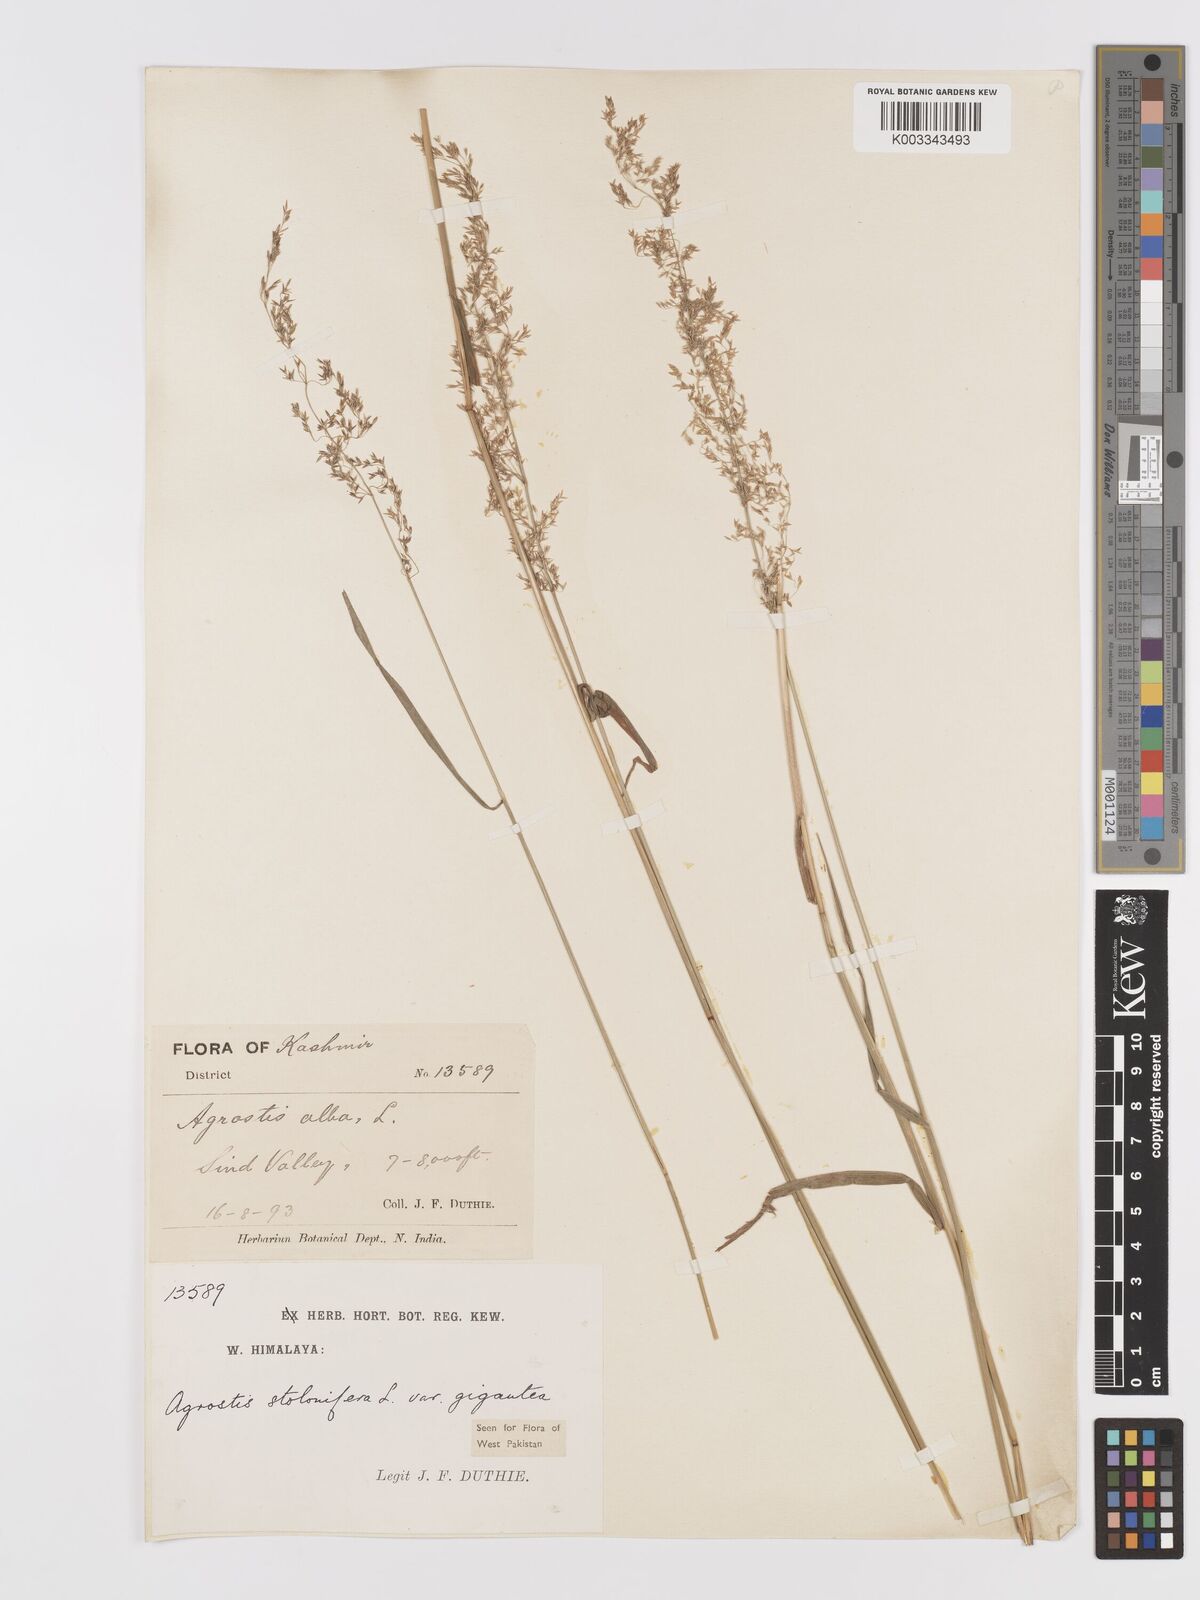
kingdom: Plantae
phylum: Tracheophyta
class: Liliopsida
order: Poales
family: Poaceae
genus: Agrostis
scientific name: Agrostis gigantea
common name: Black bent
